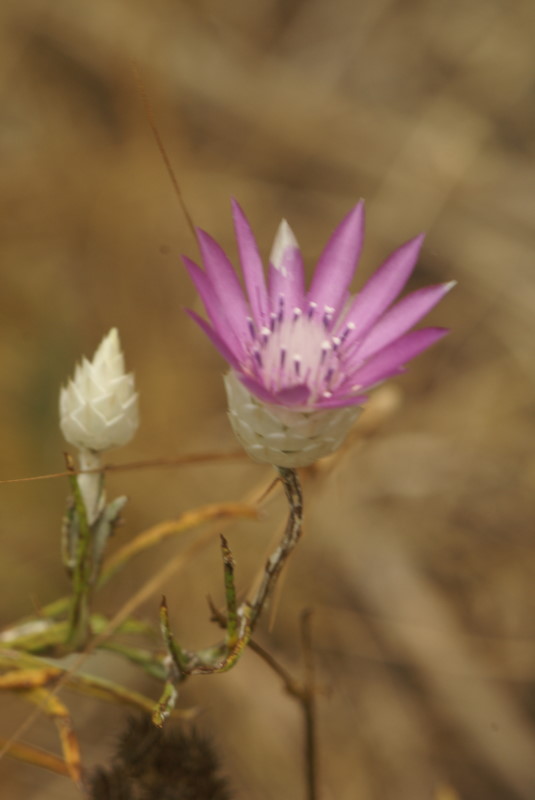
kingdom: Plantae
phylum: Tracheophyta
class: Magnoliopsida
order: Asterales
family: Asteraceae
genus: Xeranthemum
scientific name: Xeranthemum annuum
